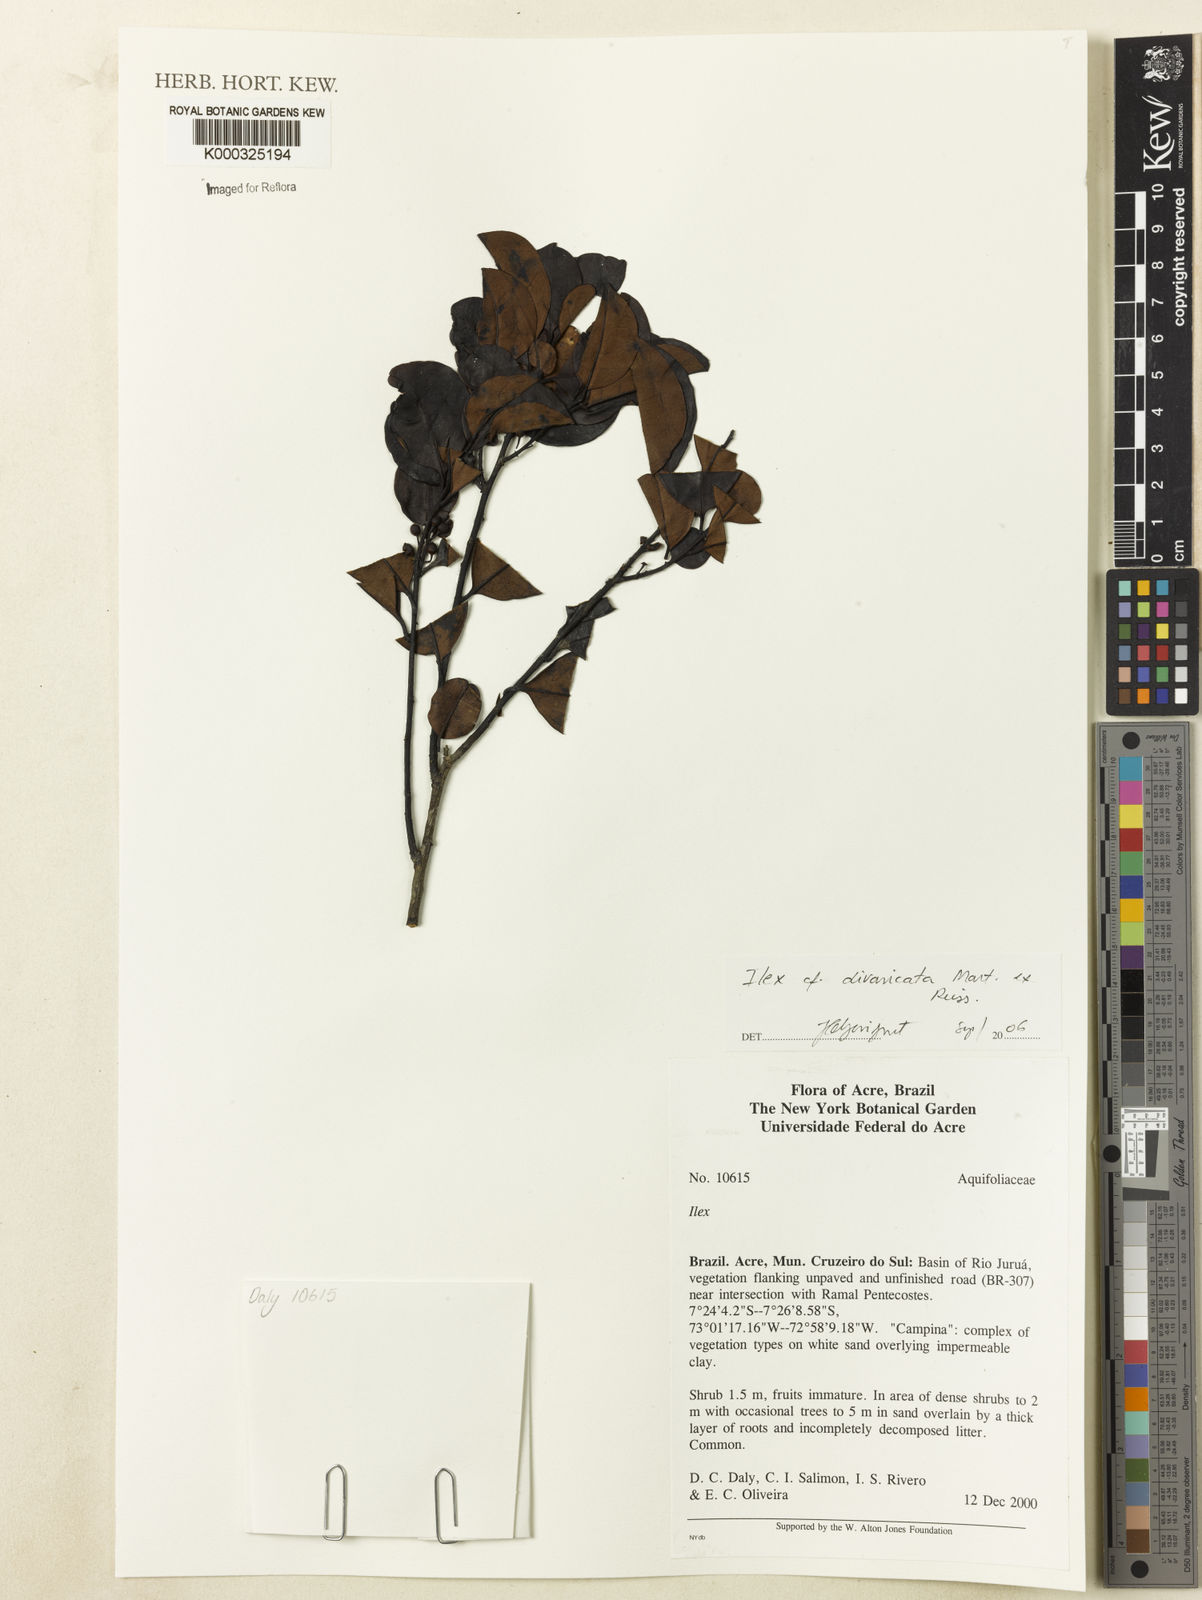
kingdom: Plantae
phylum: Tracheophyta
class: Magnoliopsida
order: Aquifoliales
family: Aquifoliaceae
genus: Ilex
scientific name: Ilex divaricata
